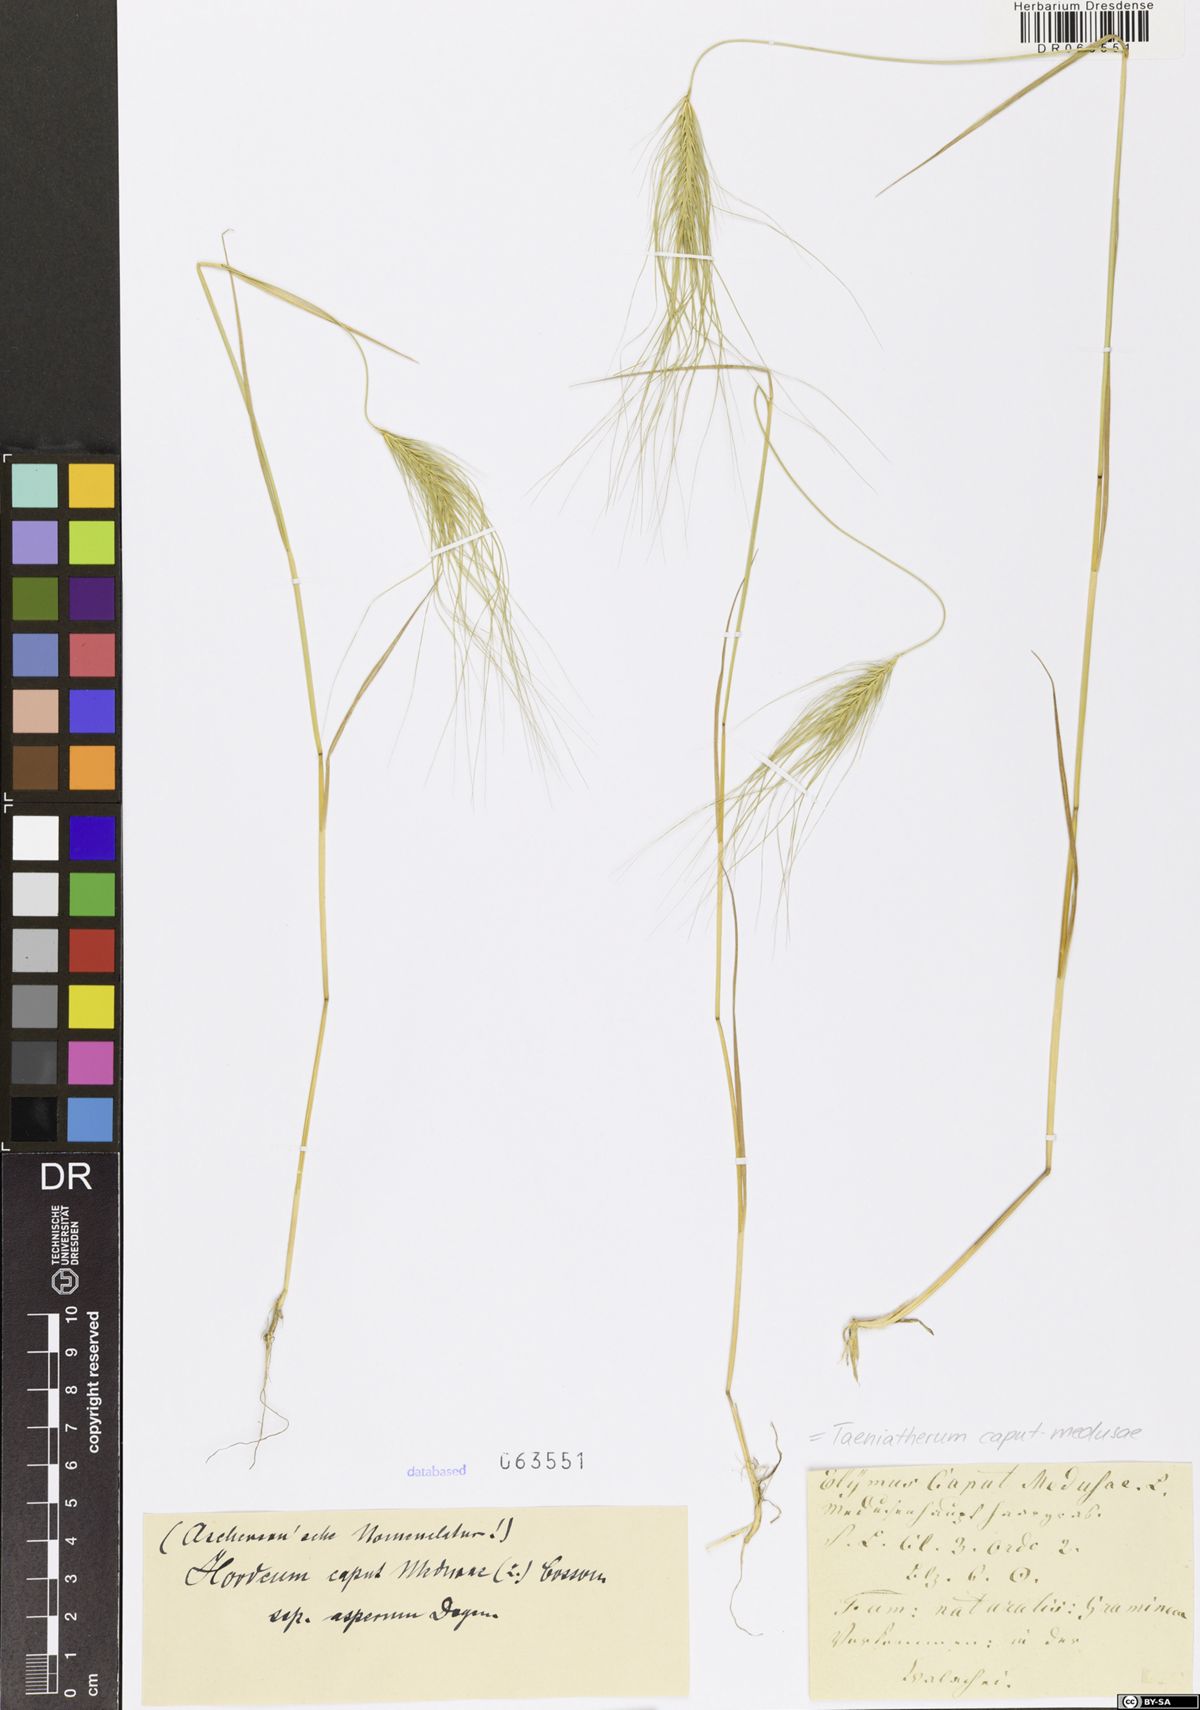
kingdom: Plantae
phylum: Tracheophyta
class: Liliopsida
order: Poales
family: Poaceae
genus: Taeniatherum
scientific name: Taeniatherum caput-medusae
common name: Medusahead
